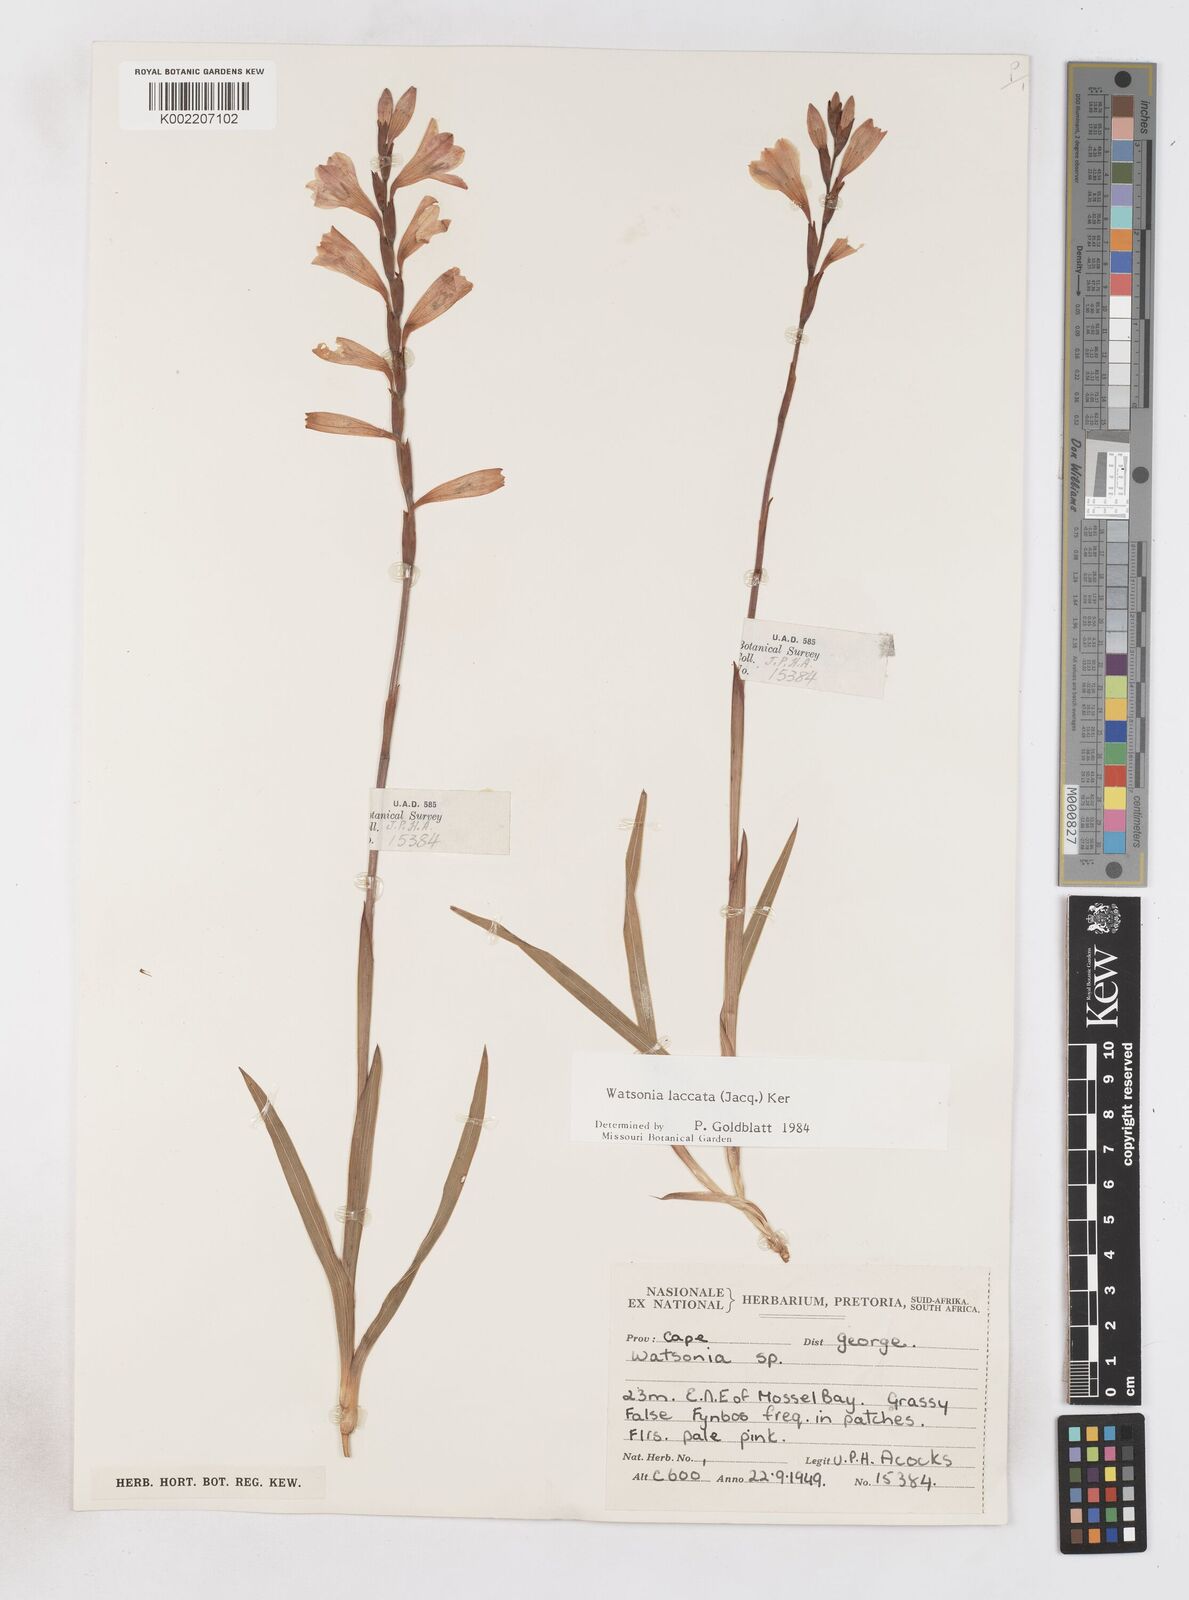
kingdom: Plantae
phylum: Tracheophyta
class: Liliopsida
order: Asparagales
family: Iridaceae
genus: Watsonia
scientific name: Watsonia laccata
